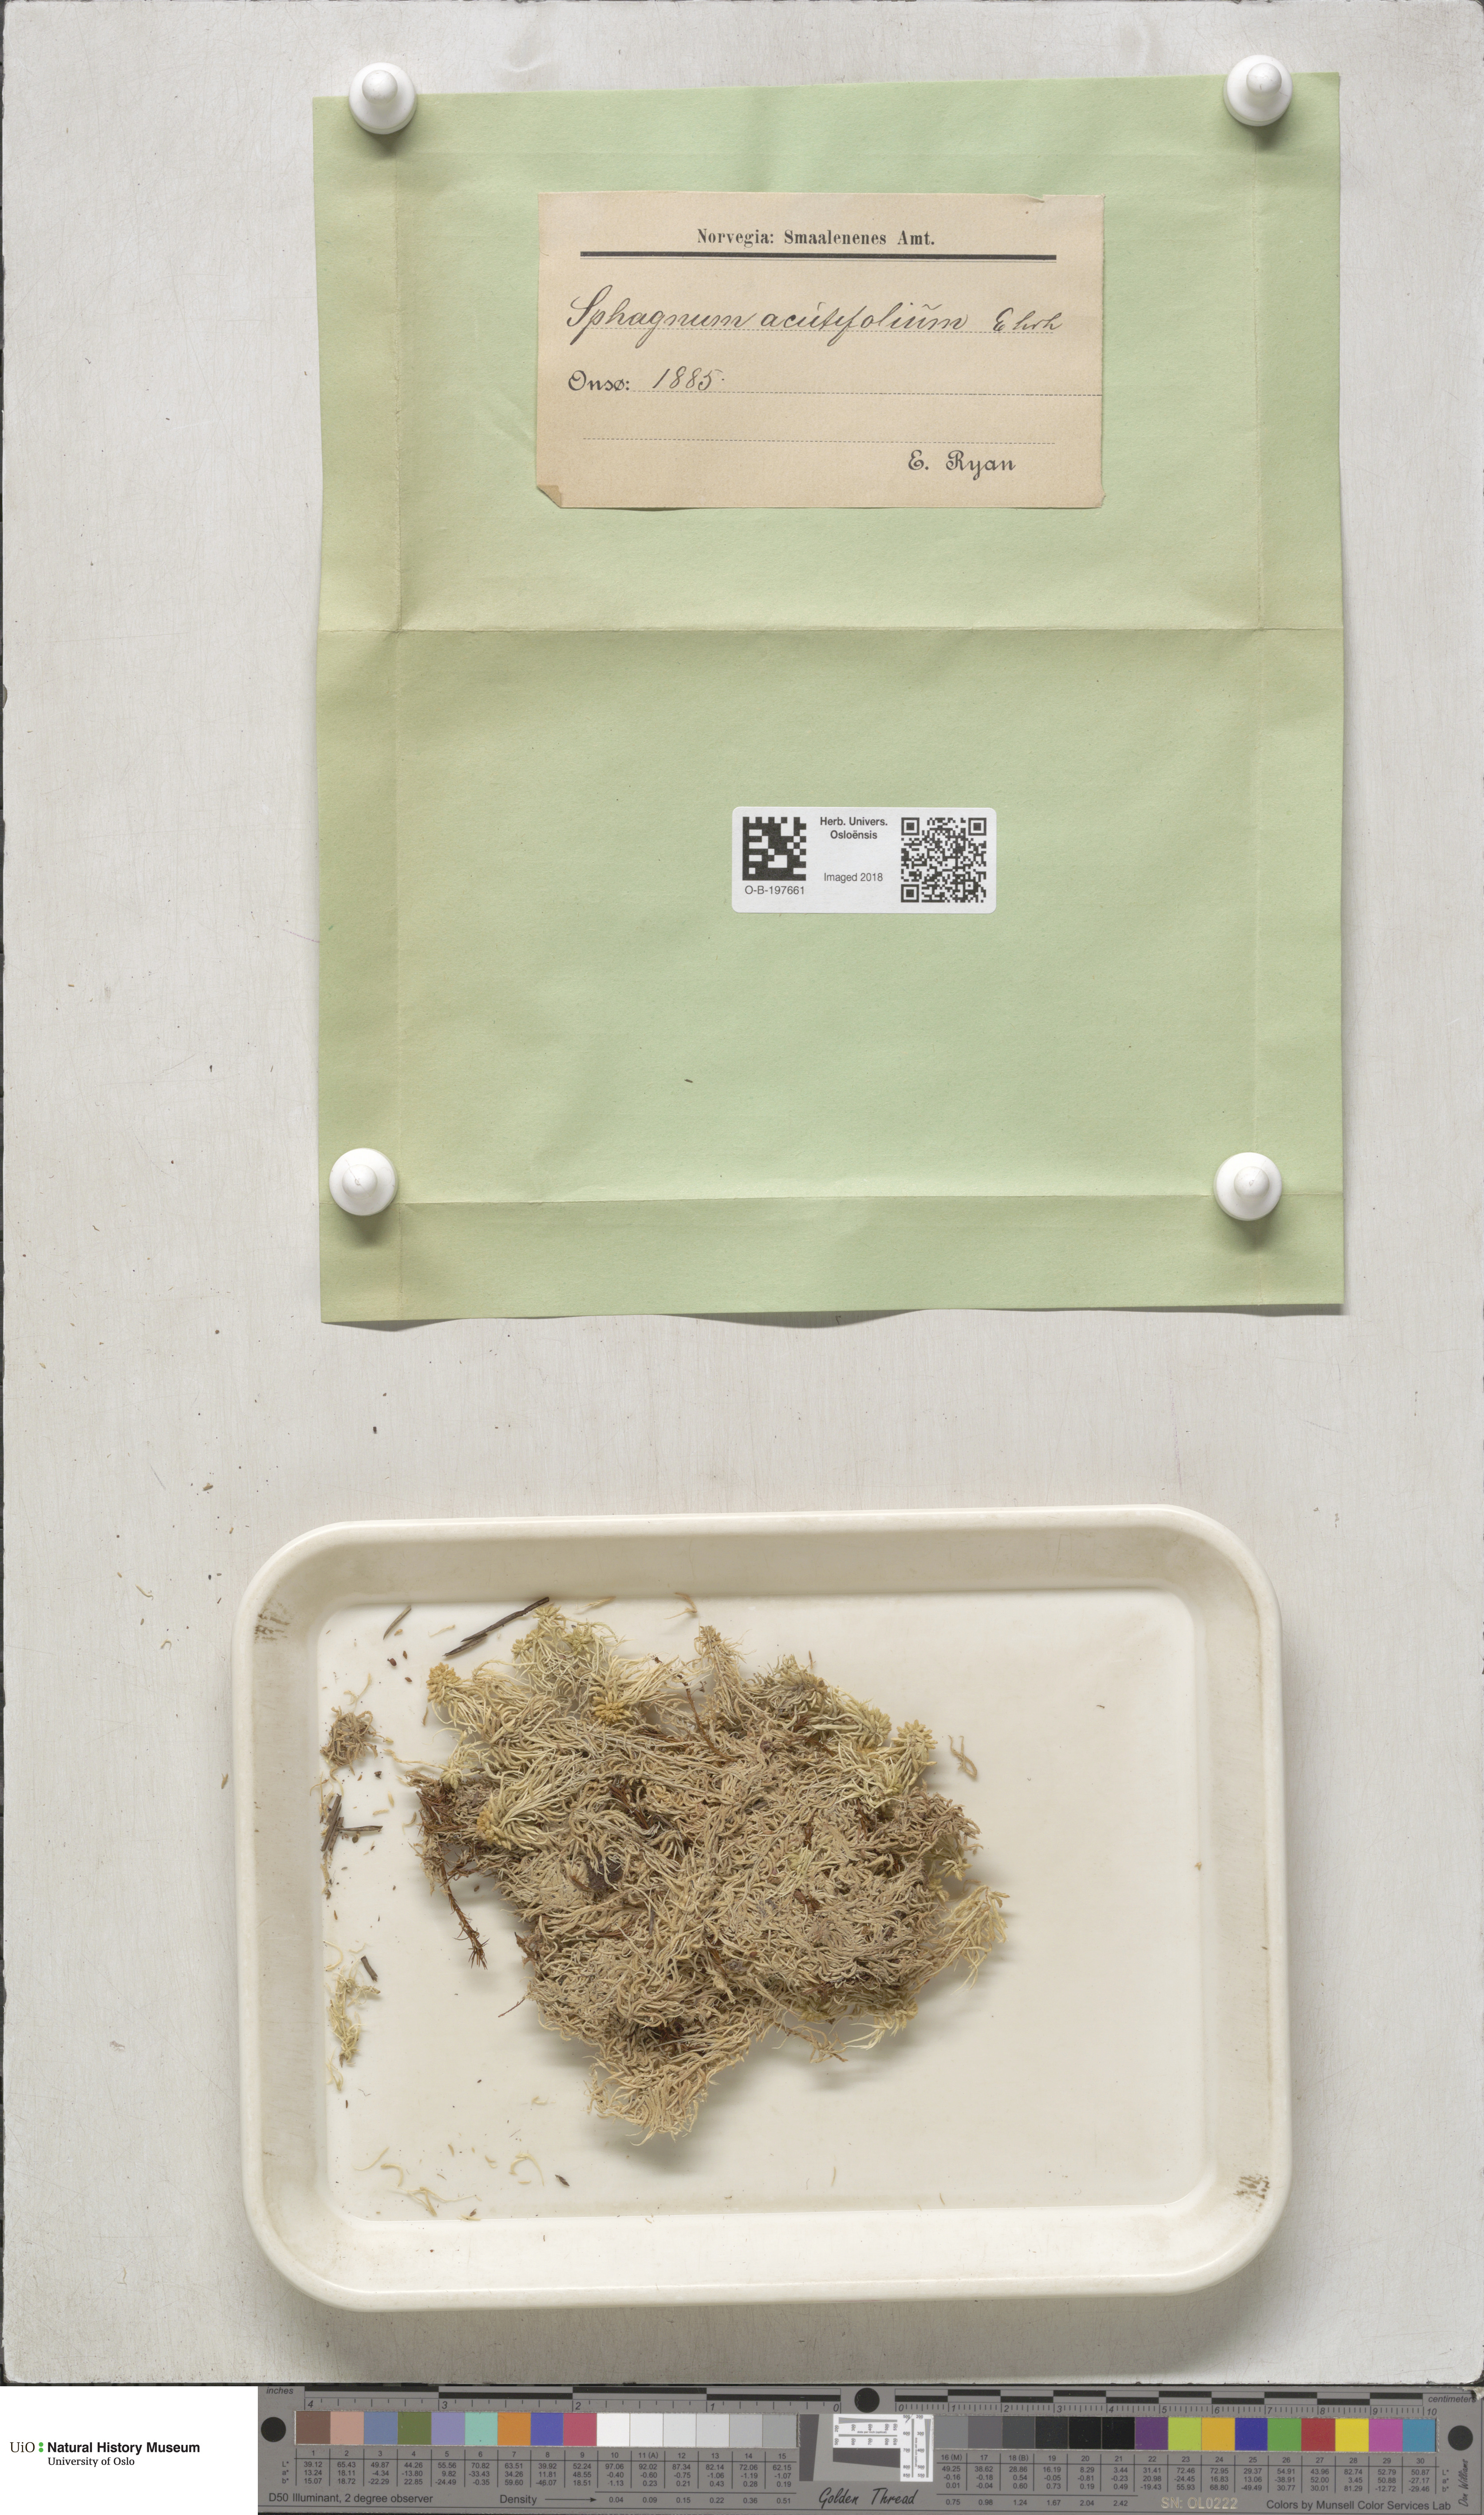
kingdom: Plantae
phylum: Bryophyta
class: Sphagnopsida
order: Sphagnales
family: Sphagnaceae
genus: Sphagnum
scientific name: Sphagnum capillifolium
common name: Small red peat moss
